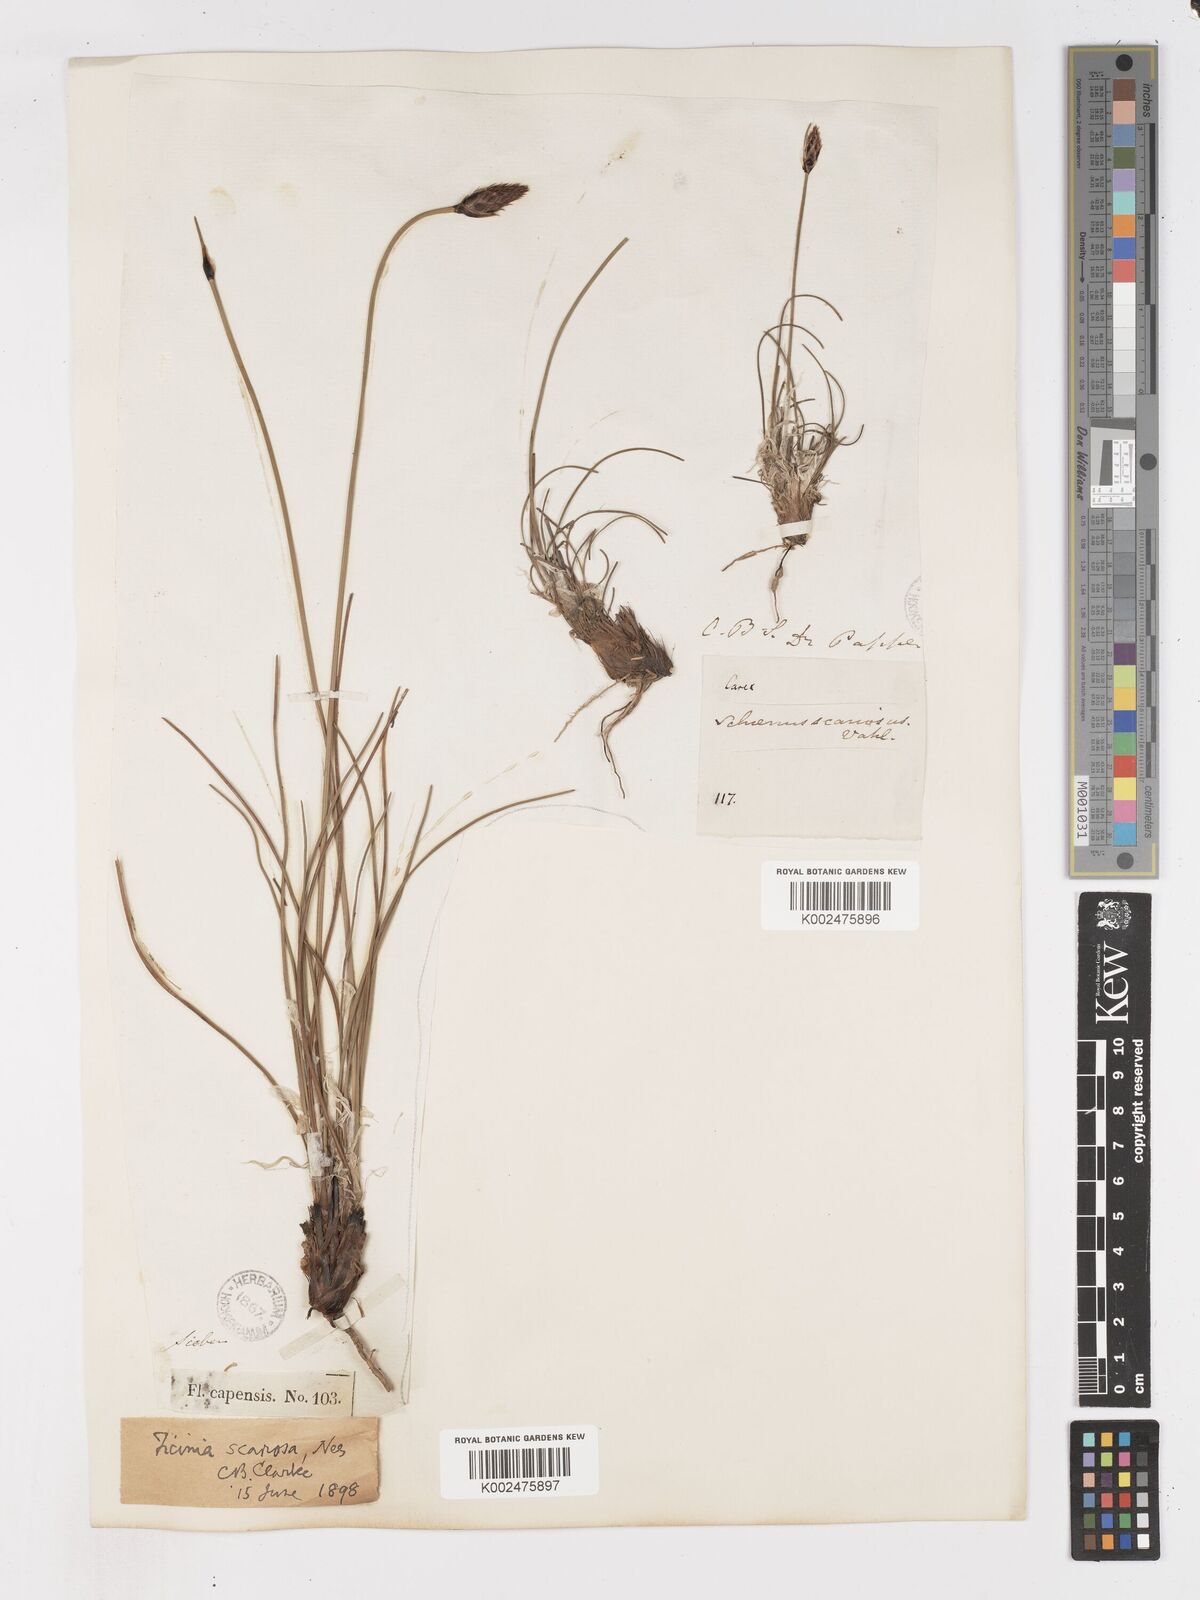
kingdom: Plantae
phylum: Tracheophyta
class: Liliopsida
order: Poales
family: Cyperaceae
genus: Ficinia
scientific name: Ficinia deusta
